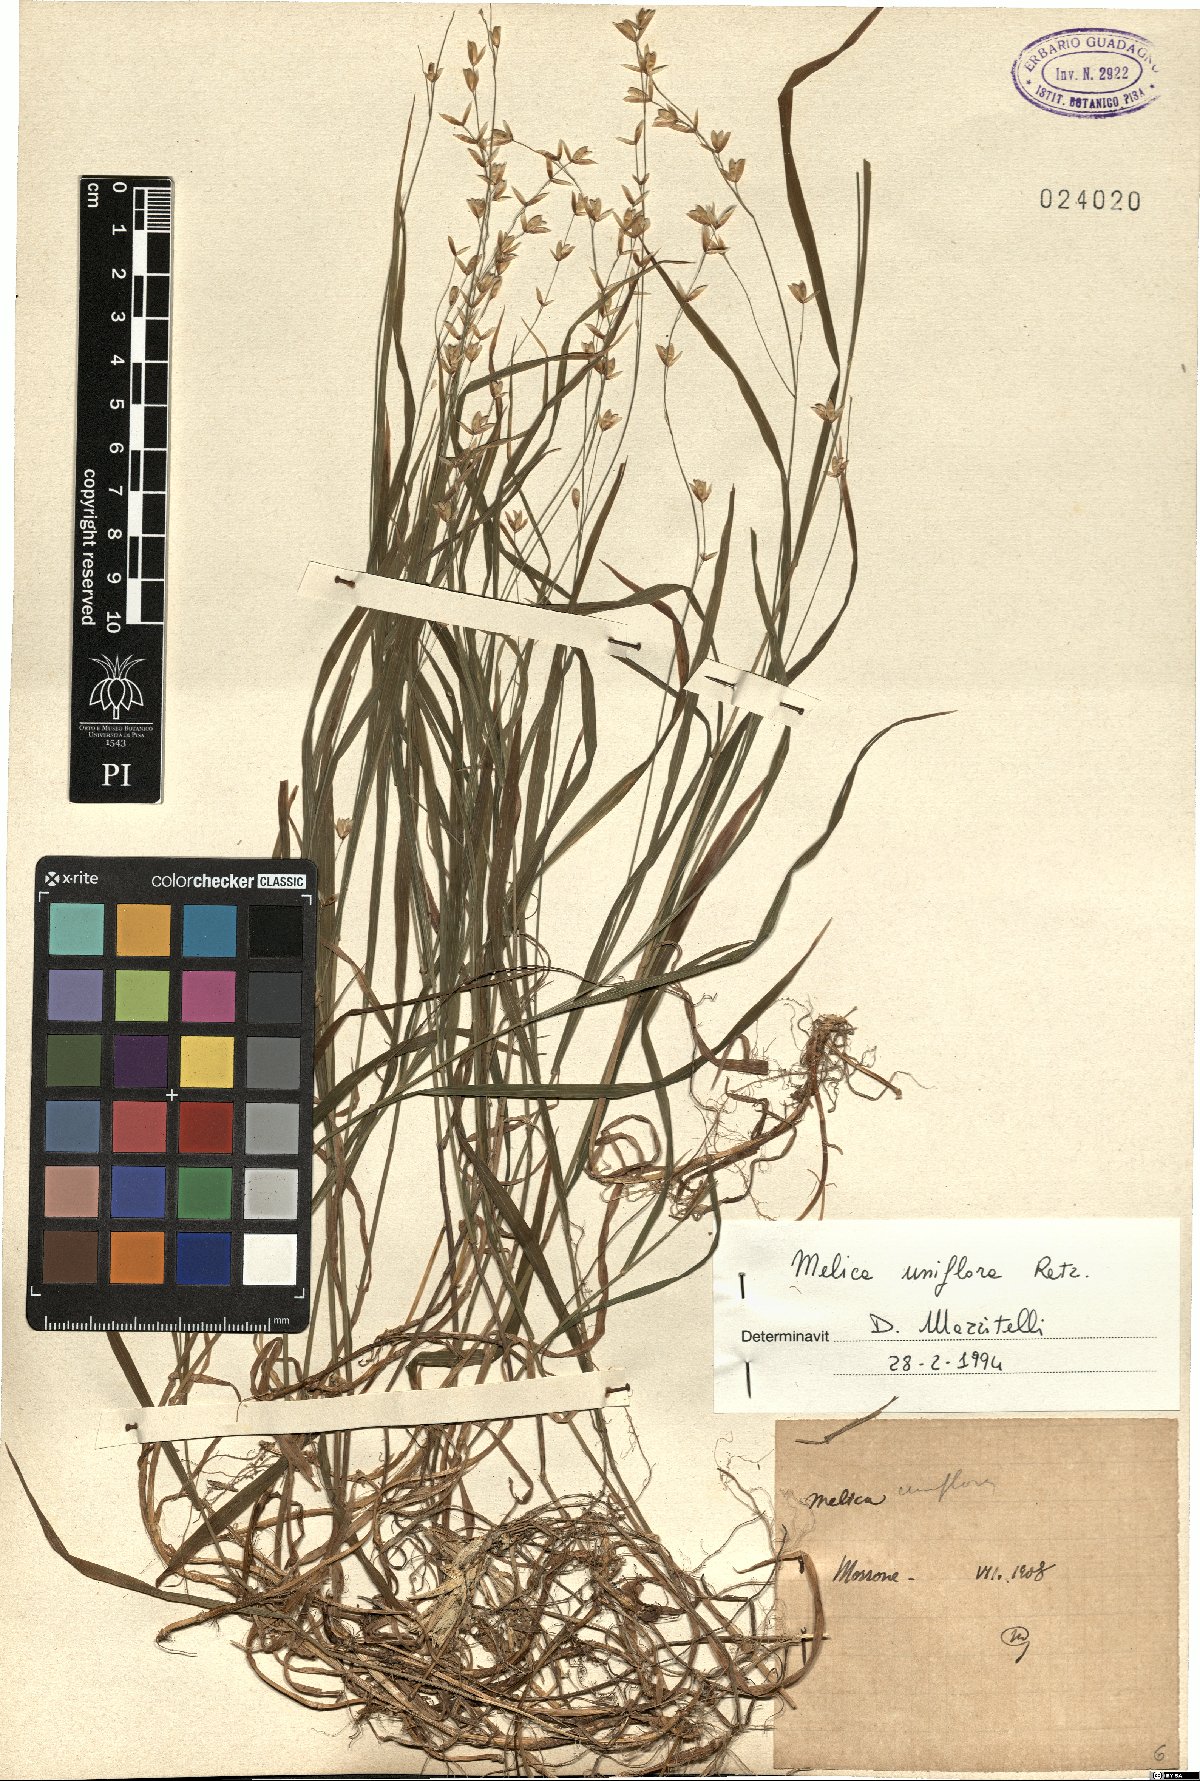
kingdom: Plantae
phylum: Tracheophyta
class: Liliopsida
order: Poales
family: Poaceae
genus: Melica
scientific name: Melica uniflora
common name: Wood melick
